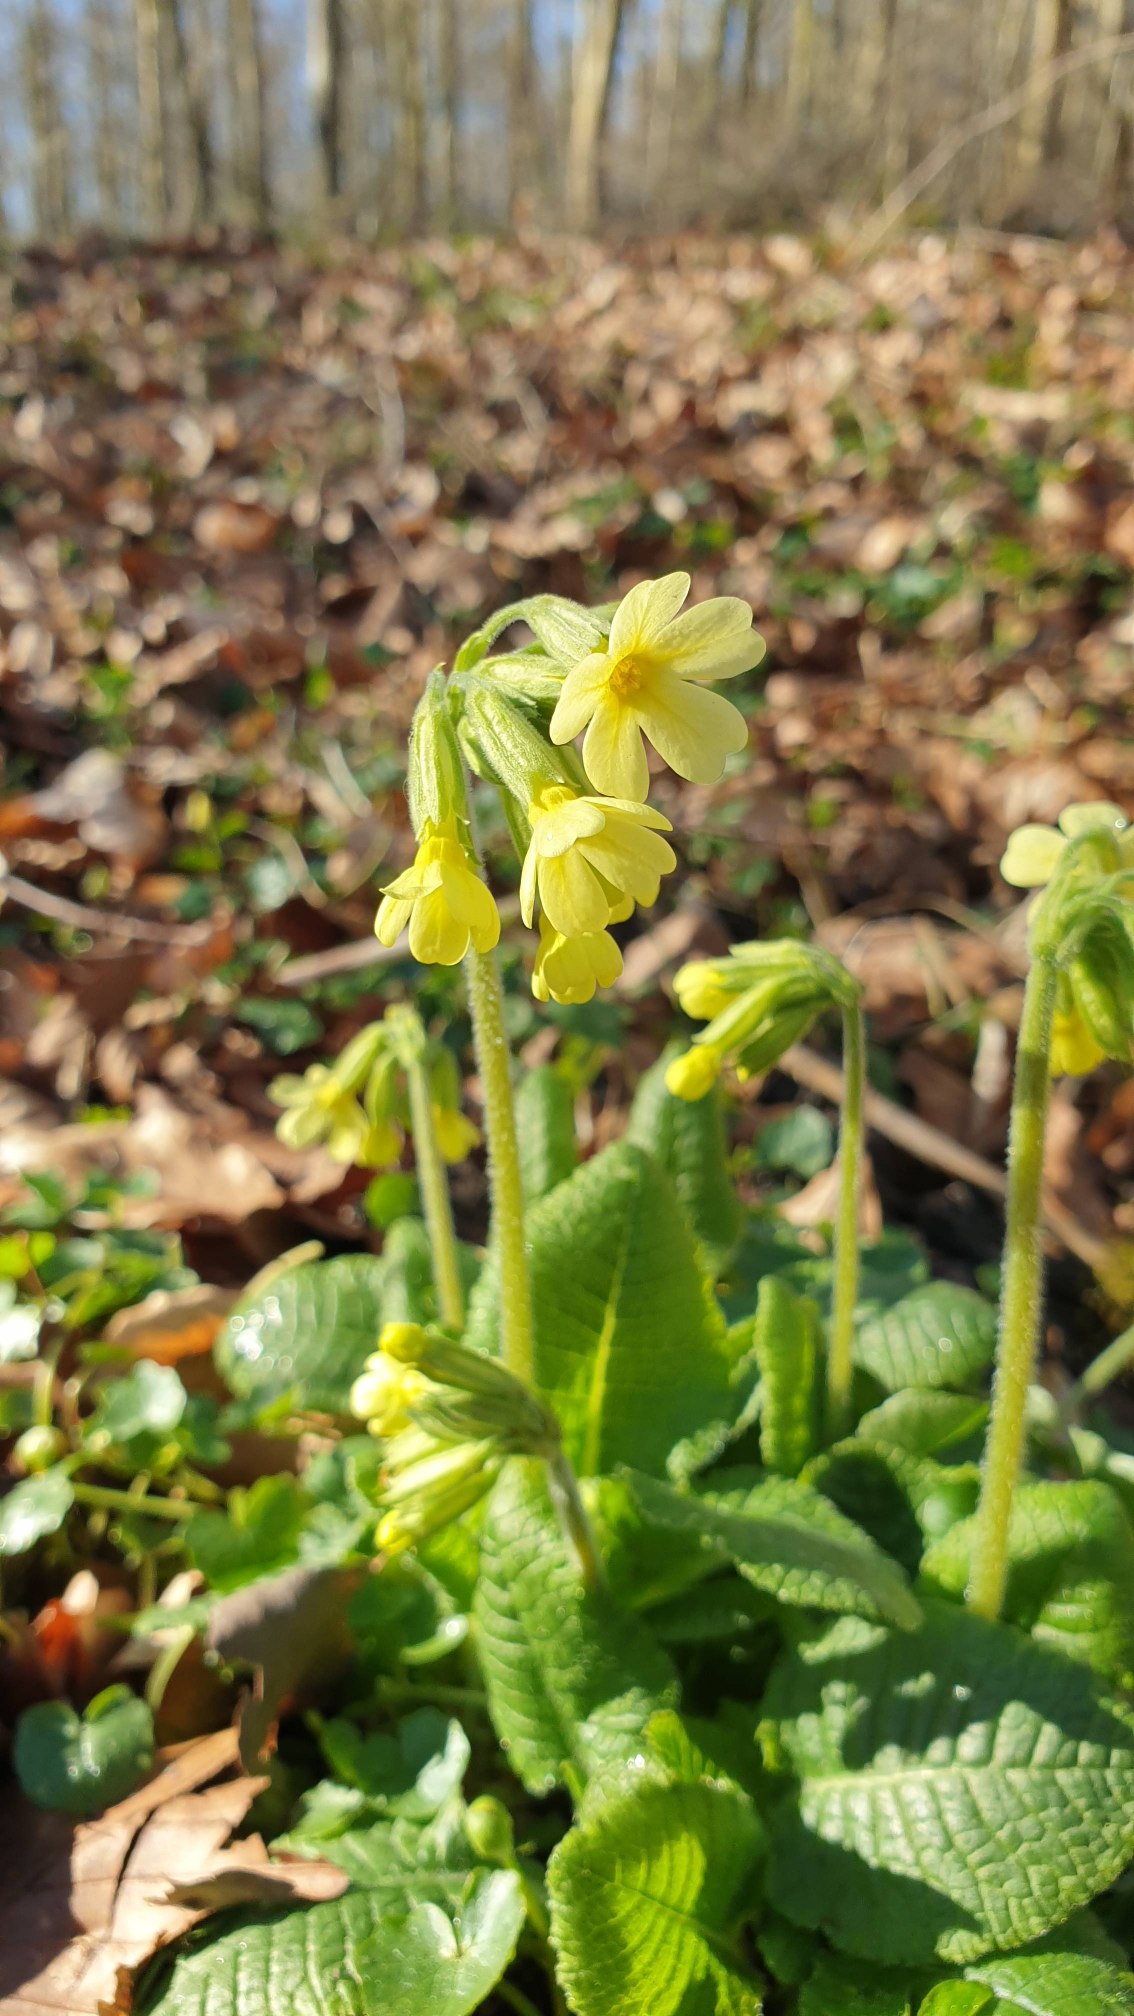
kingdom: Plantae
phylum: Tracheophyta
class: Magnoliopsida
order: Ericales
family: Primulaceae
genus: Primula
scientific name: Primula elatior
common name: Fladkravet kodriver
